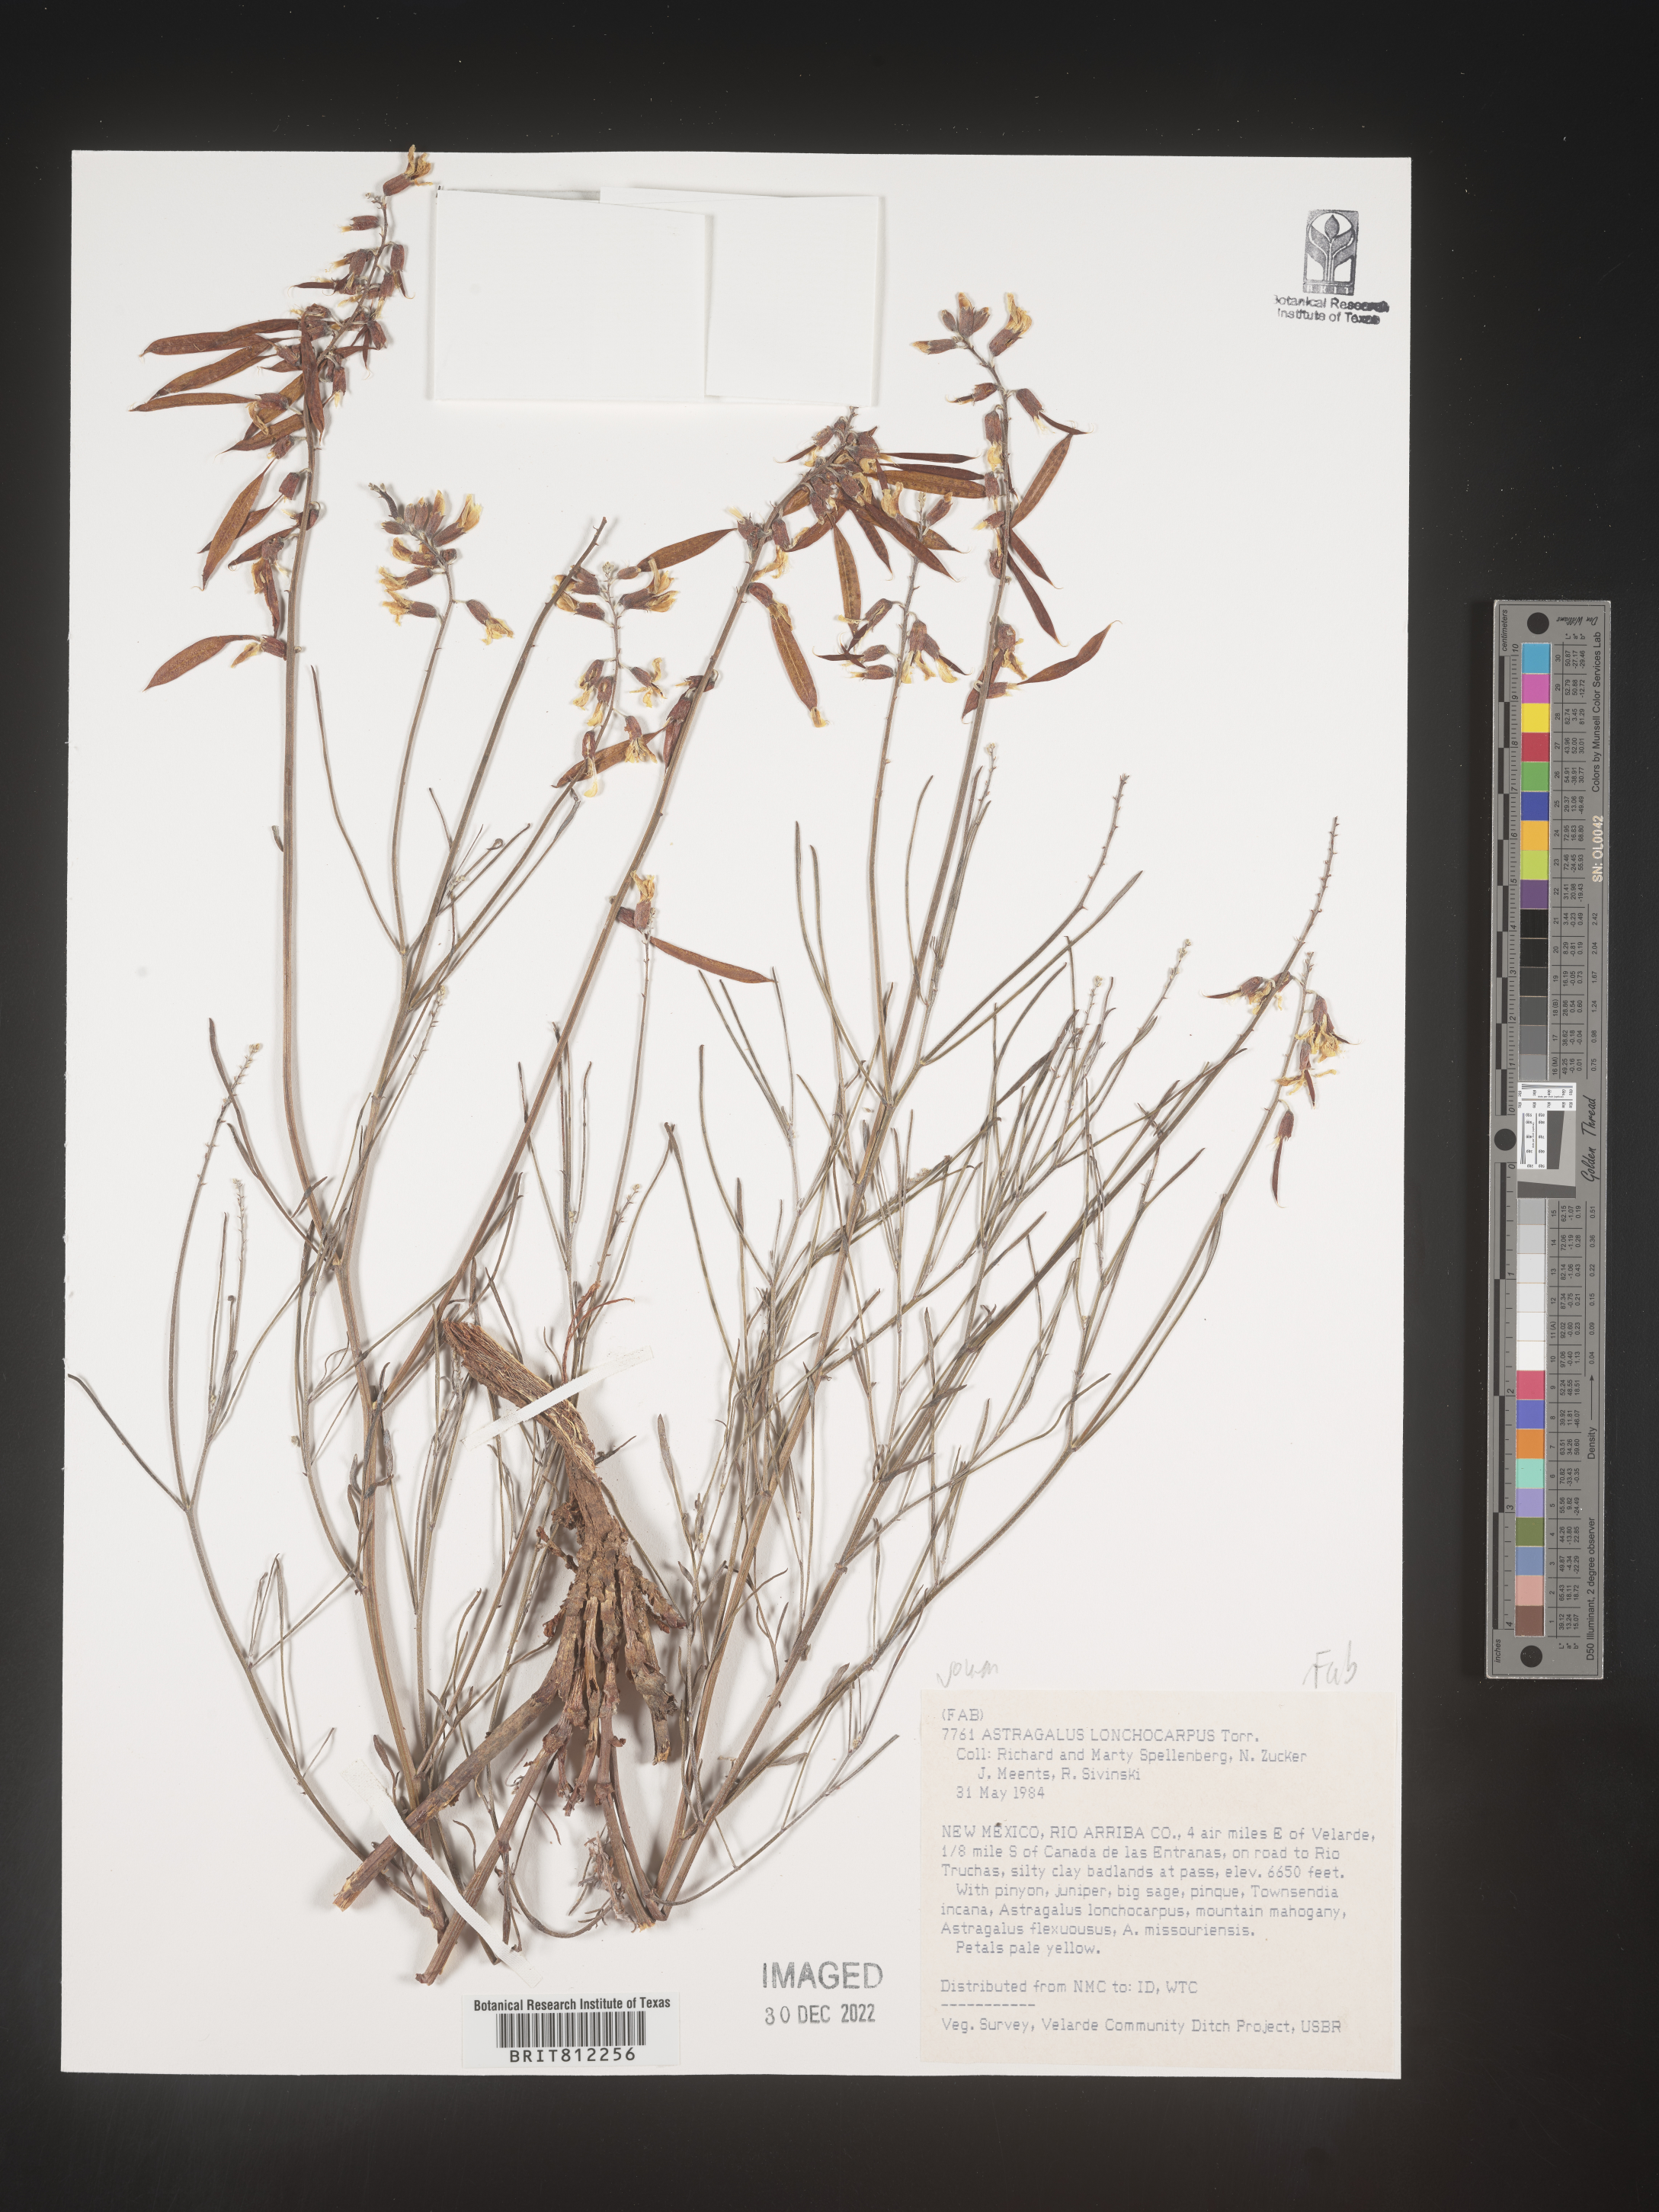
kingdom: Plantae
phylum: Tracheophyta
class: Magnoliopsida
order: Fabales
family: Fabaceae
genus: Astragalus
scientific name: Astragalus lonchocarpus
